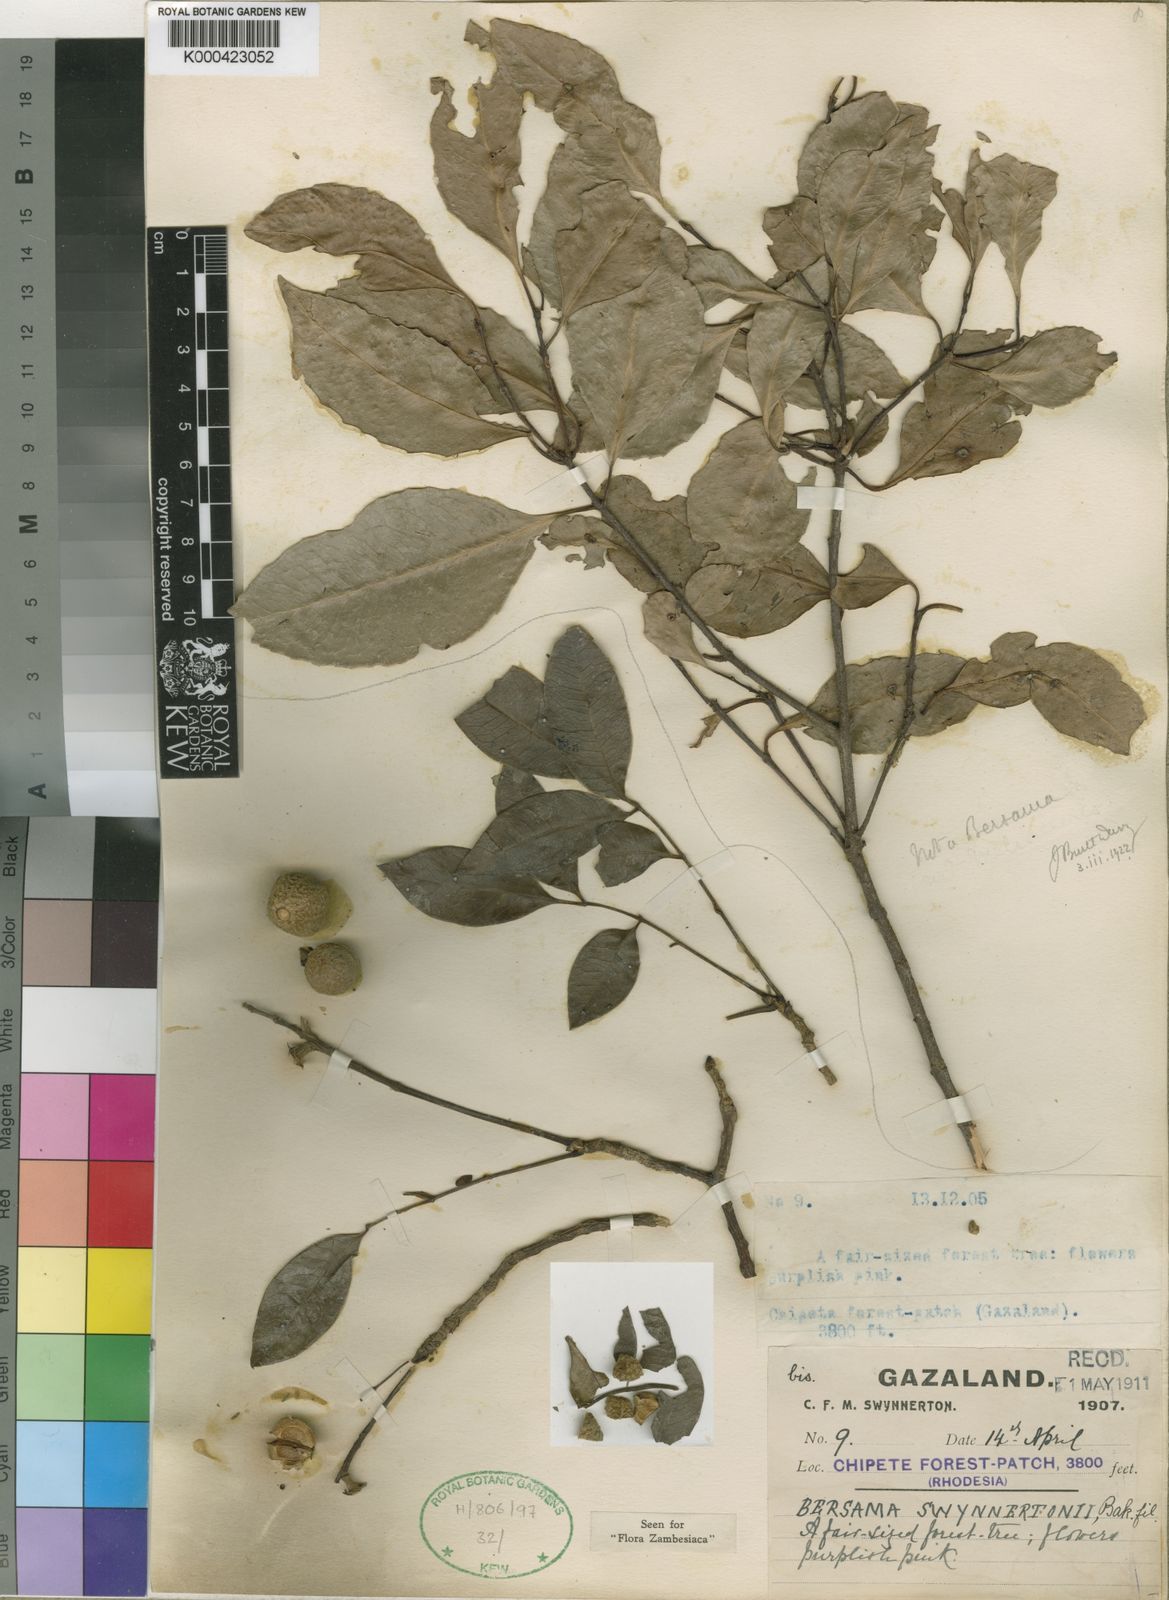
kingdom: Plantae
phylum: Tracheophyta
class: Magnoliopsida
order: Geraniales
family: Melianthaceae
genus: Bersama
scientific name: Bersama swynnertonii
